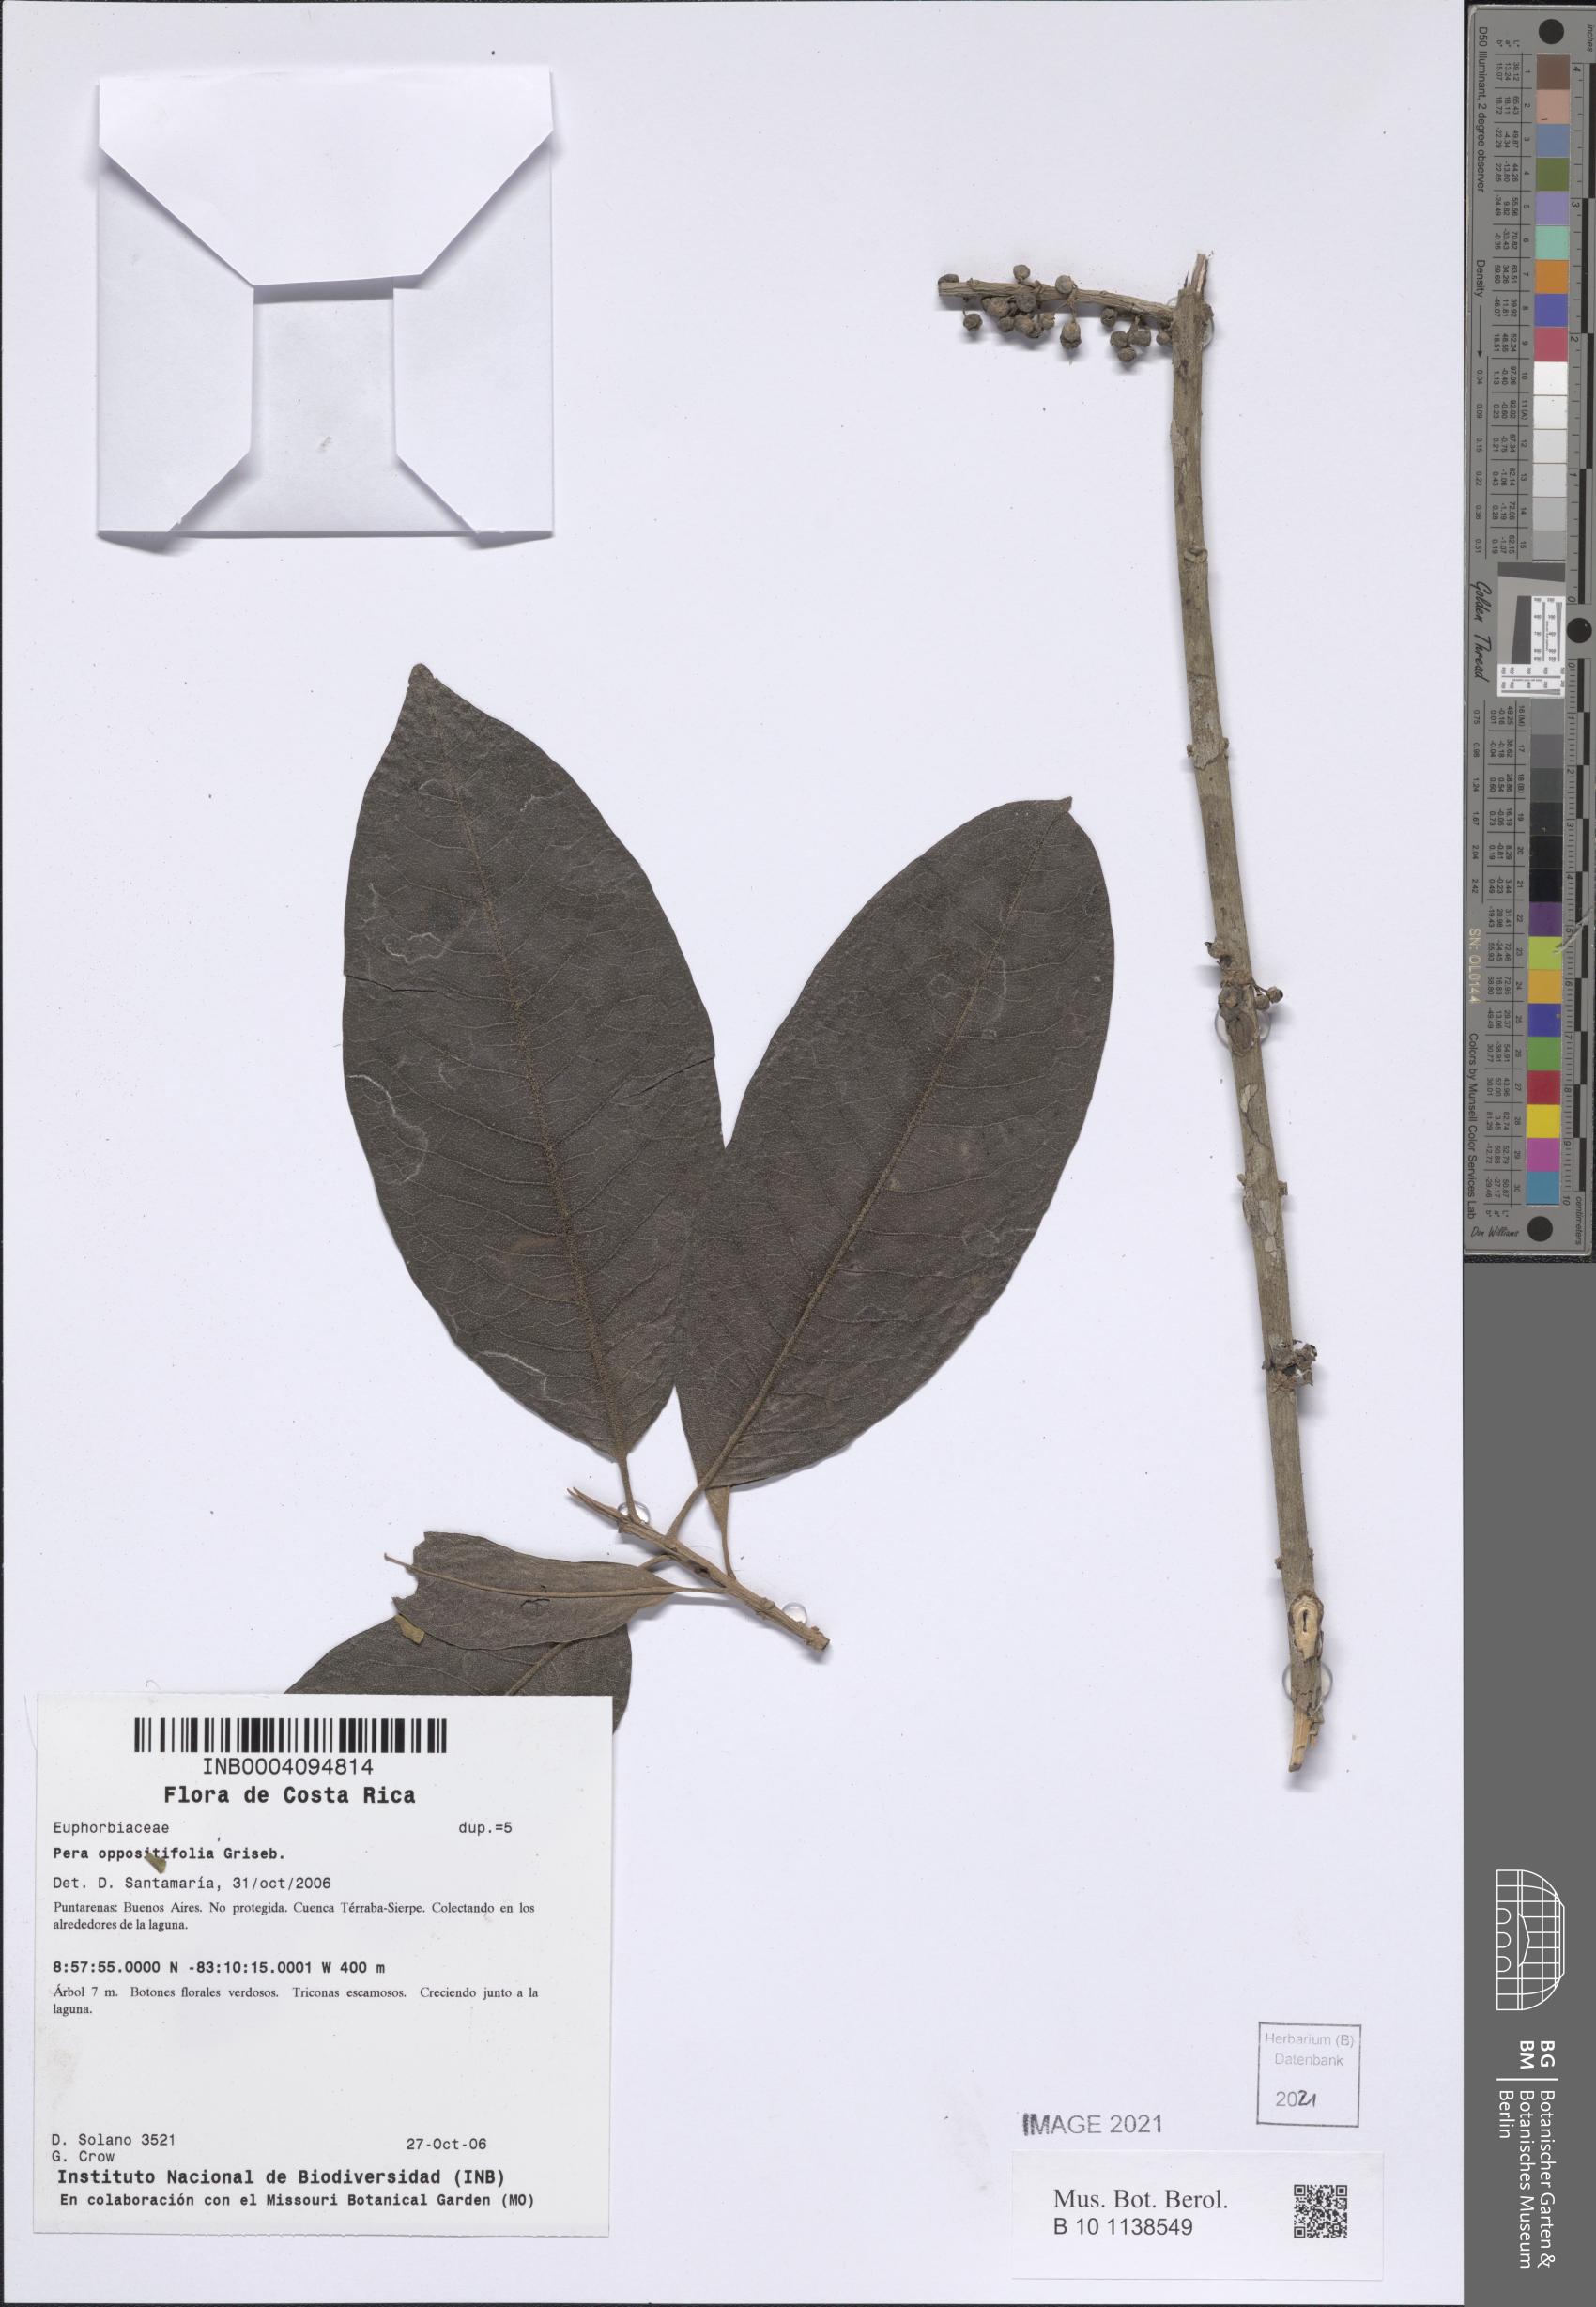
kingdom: Plantae
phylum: Tracheophyta
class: Magnoliopsida
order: Malpighiales
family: Peraceae
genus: Pera
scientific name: Pera oppositifolia
